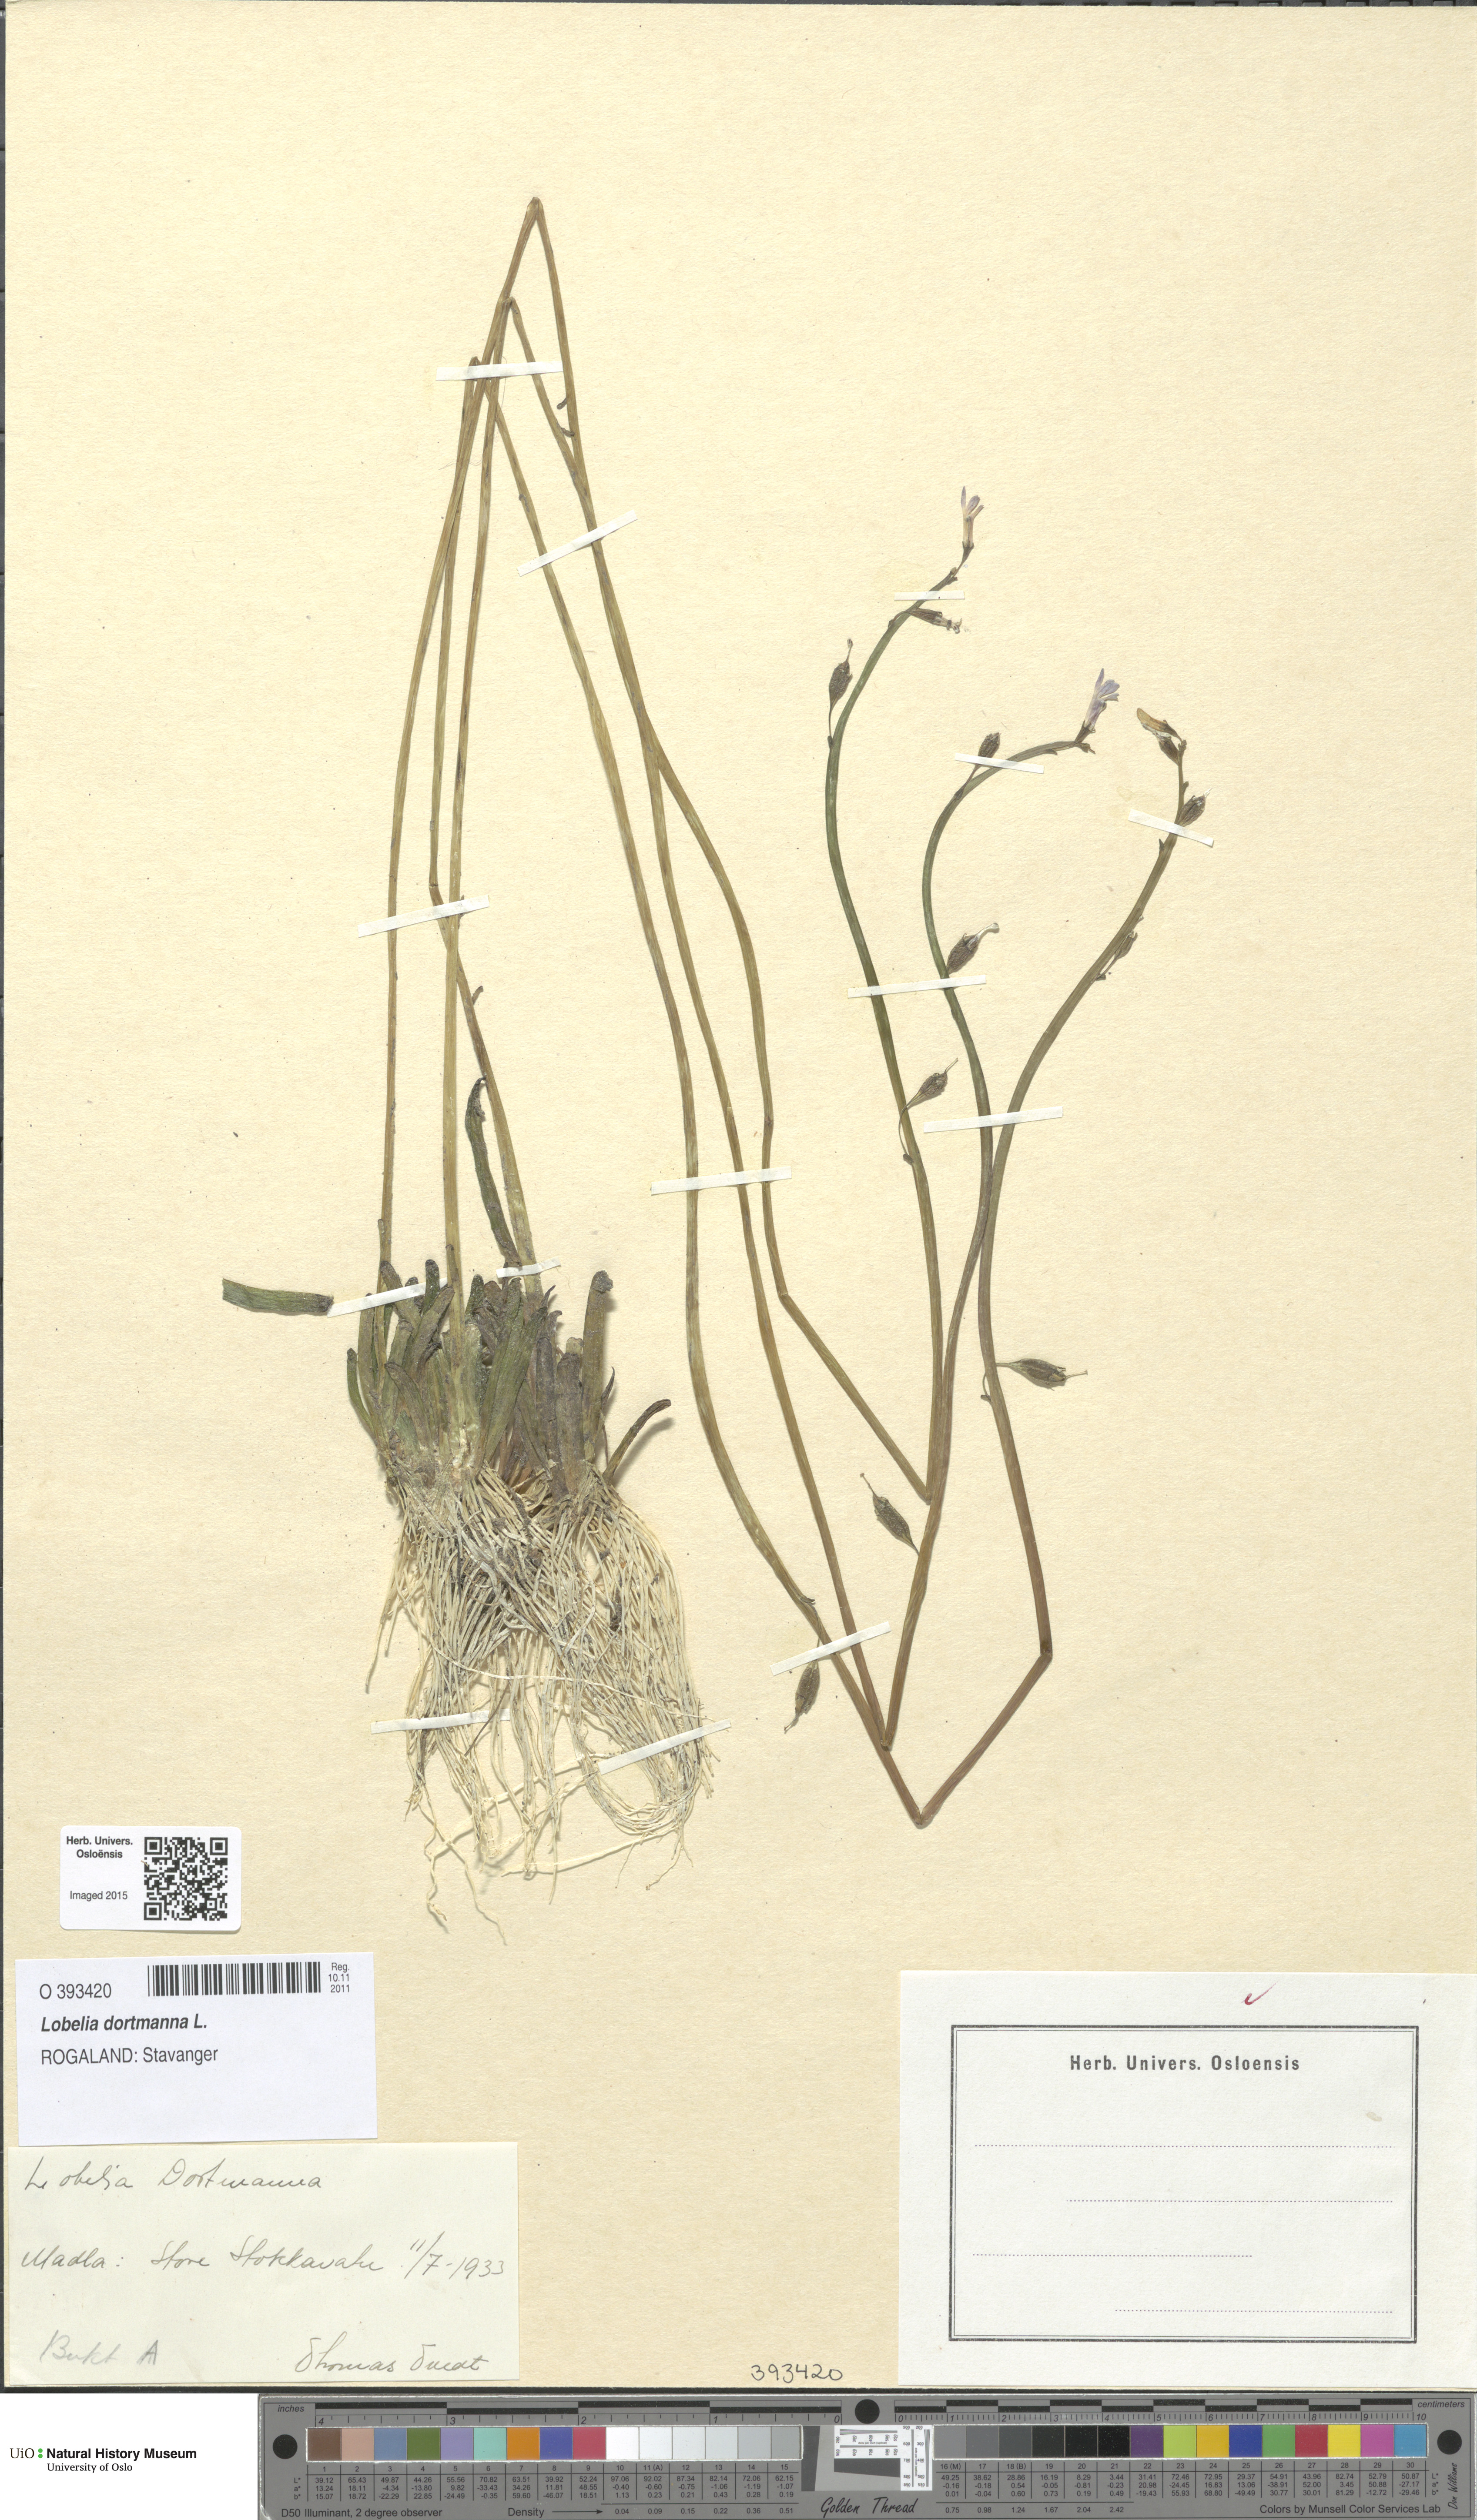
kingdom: Plantae
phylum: Tracheophyta
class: Magnoliopsida
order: Asterales
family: Campanulaceae
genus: Lobelia
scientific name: Lobelia dortmanna
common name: Water lobelia
